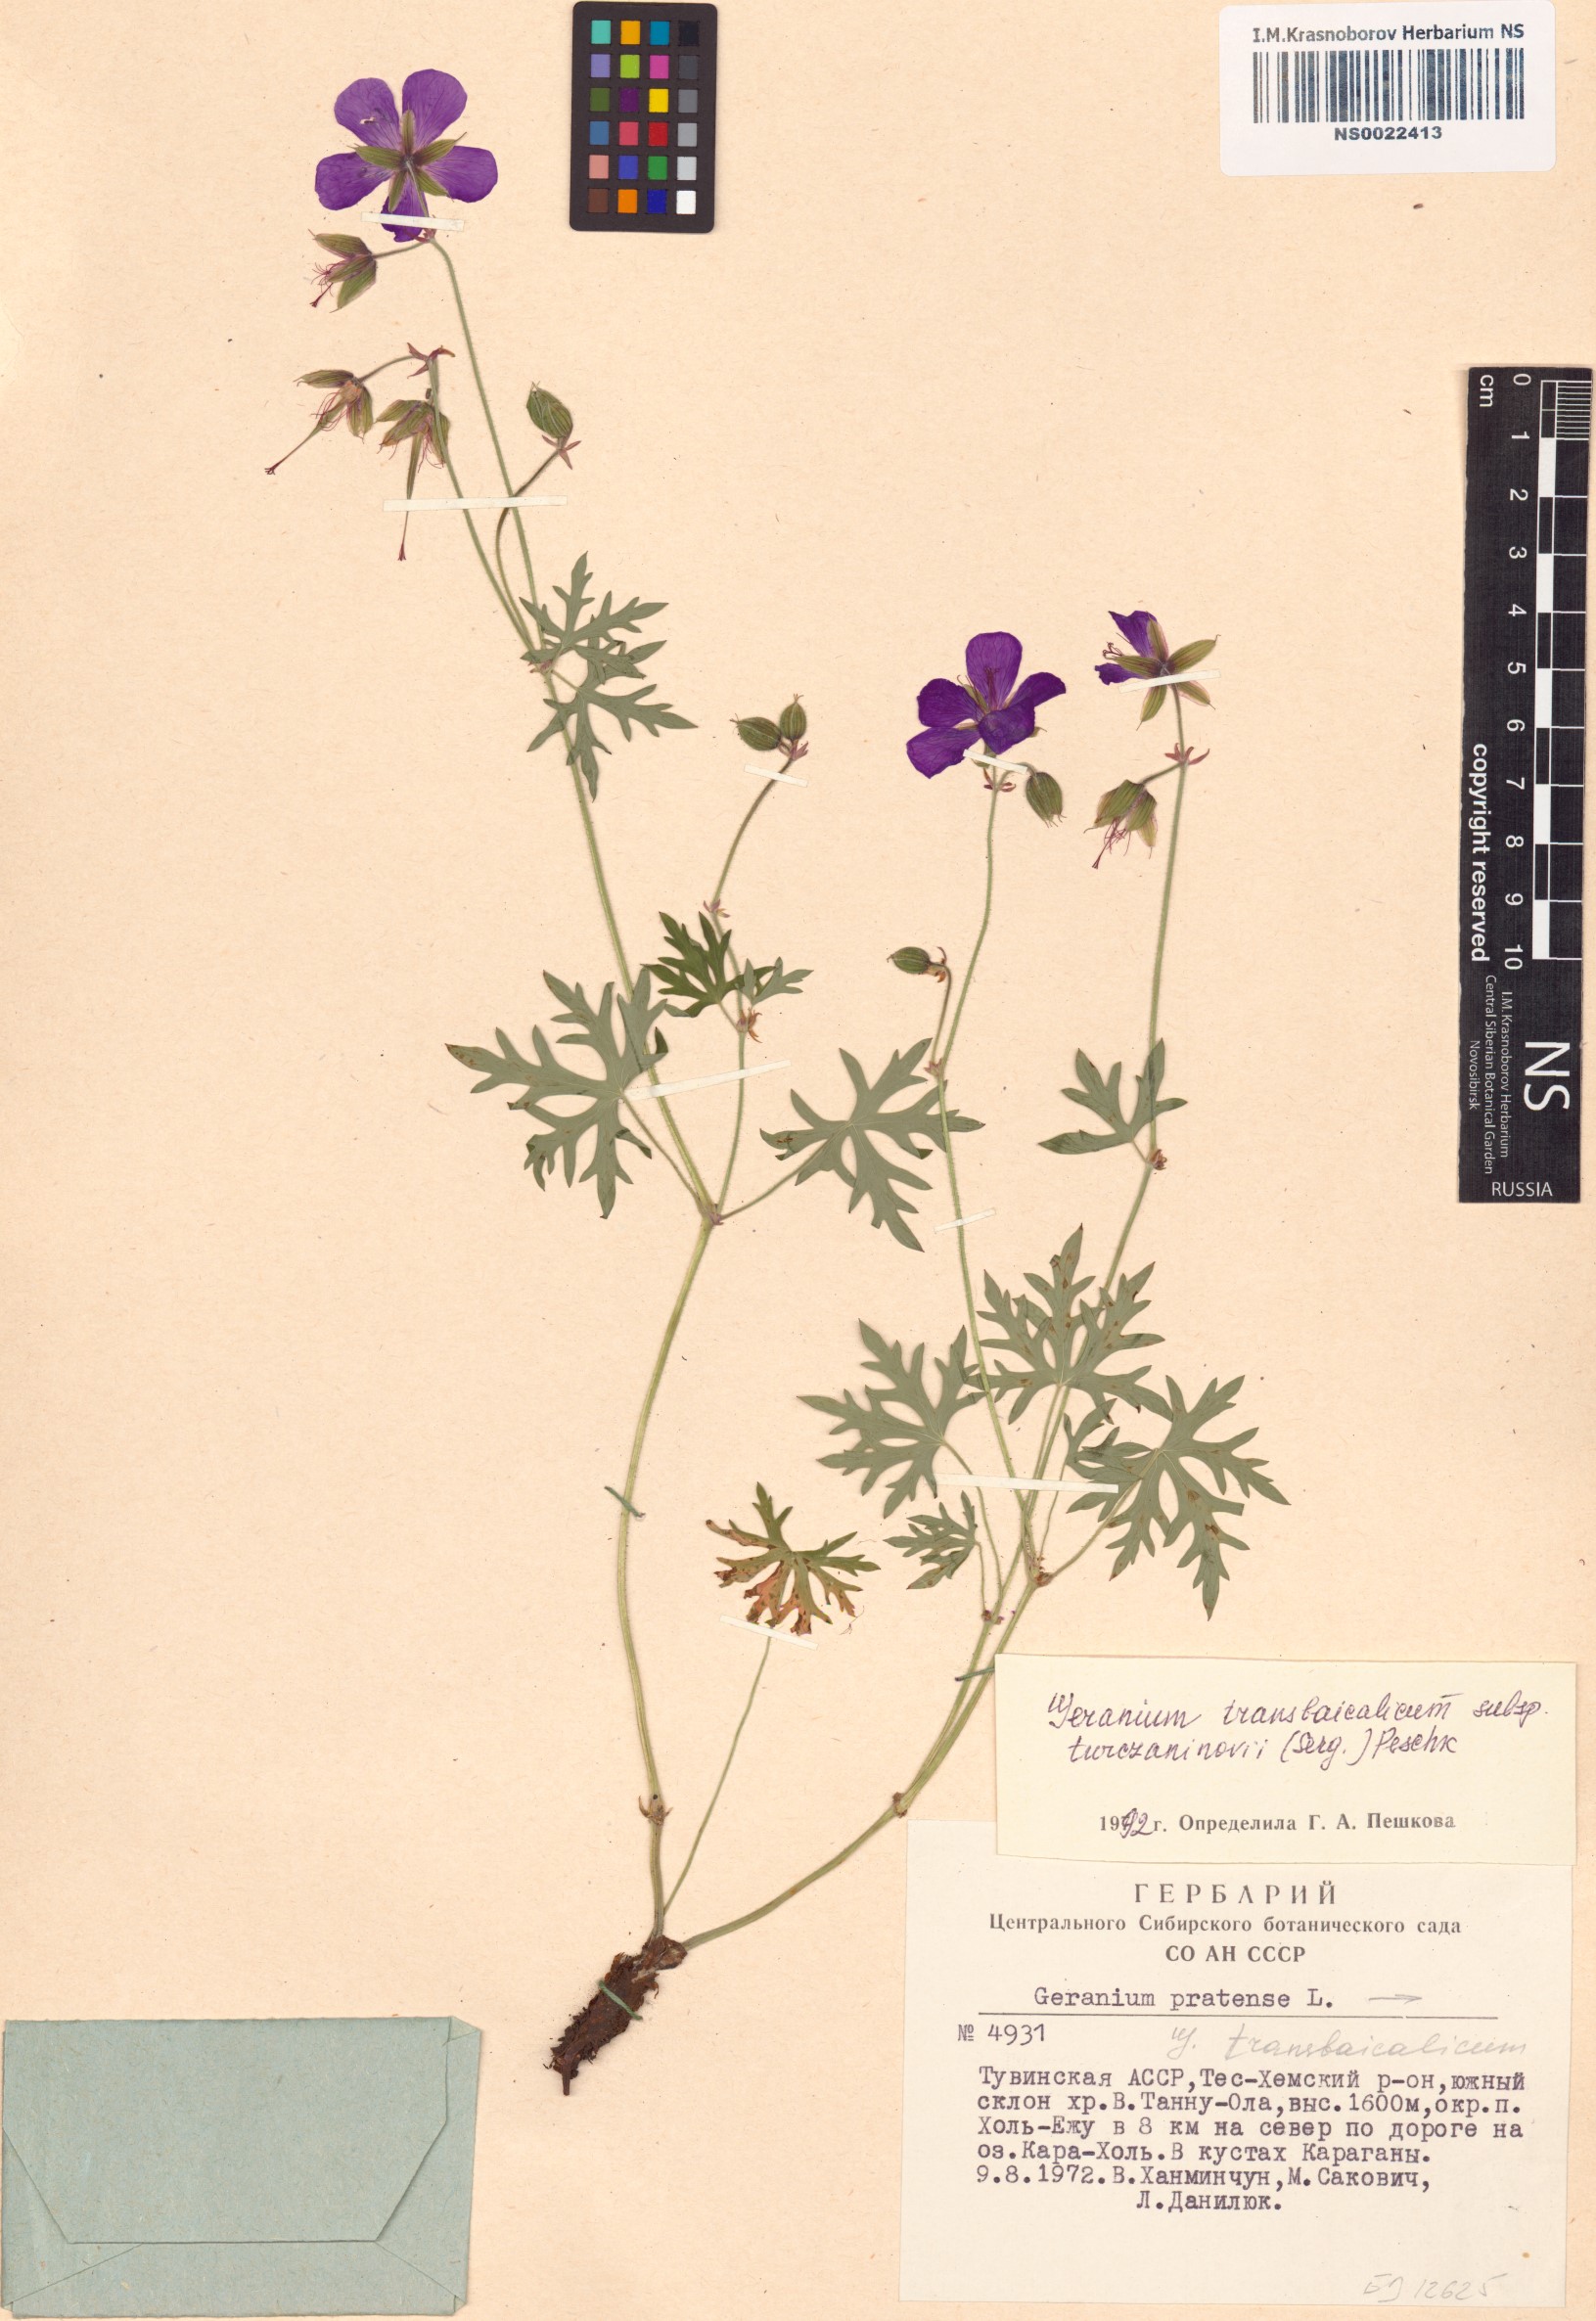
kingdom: Plantae
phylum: Tracheophyta
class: Magnoliopsida
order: Geraniales
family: Geraniaceae
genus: Geranium
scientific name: Geranium pratense
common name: Meadow crane's-bill
